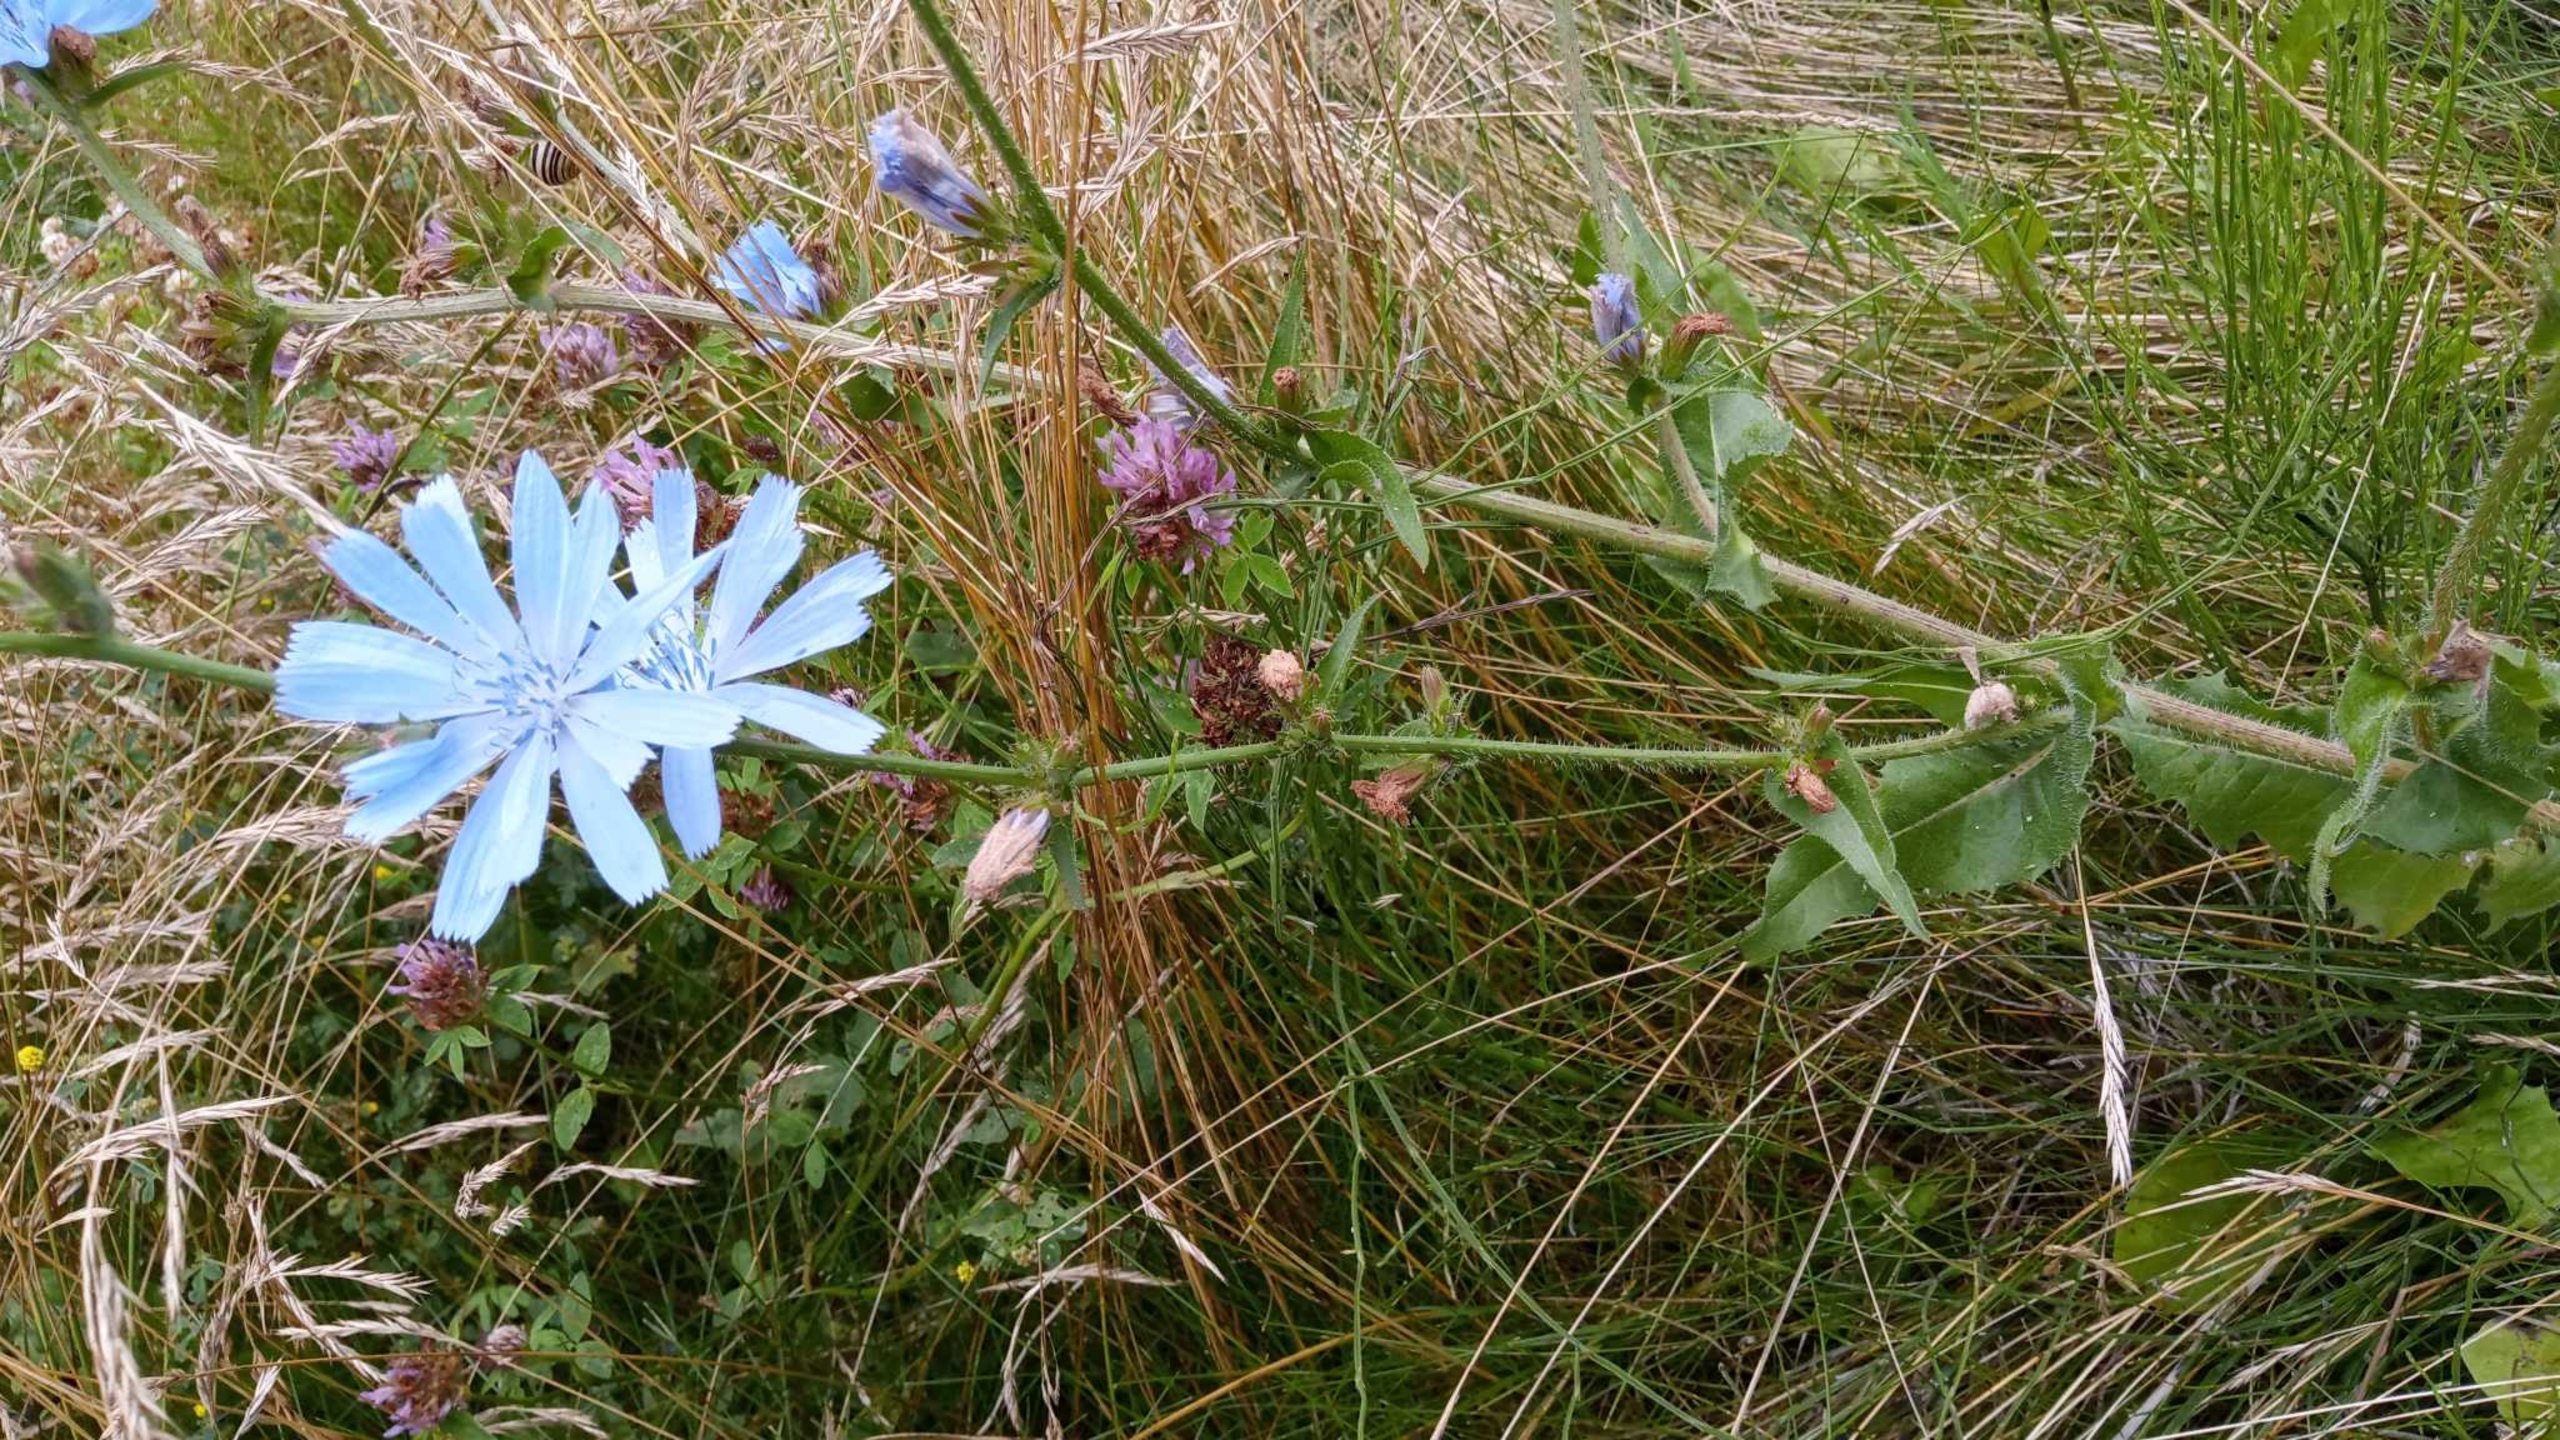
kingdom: Plantae
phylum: Tracheophyta
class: Magnoliopsida
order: Asterales
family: Asteraceae
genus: Cichorium
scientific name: Cichorium intybus
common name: Cikorie
